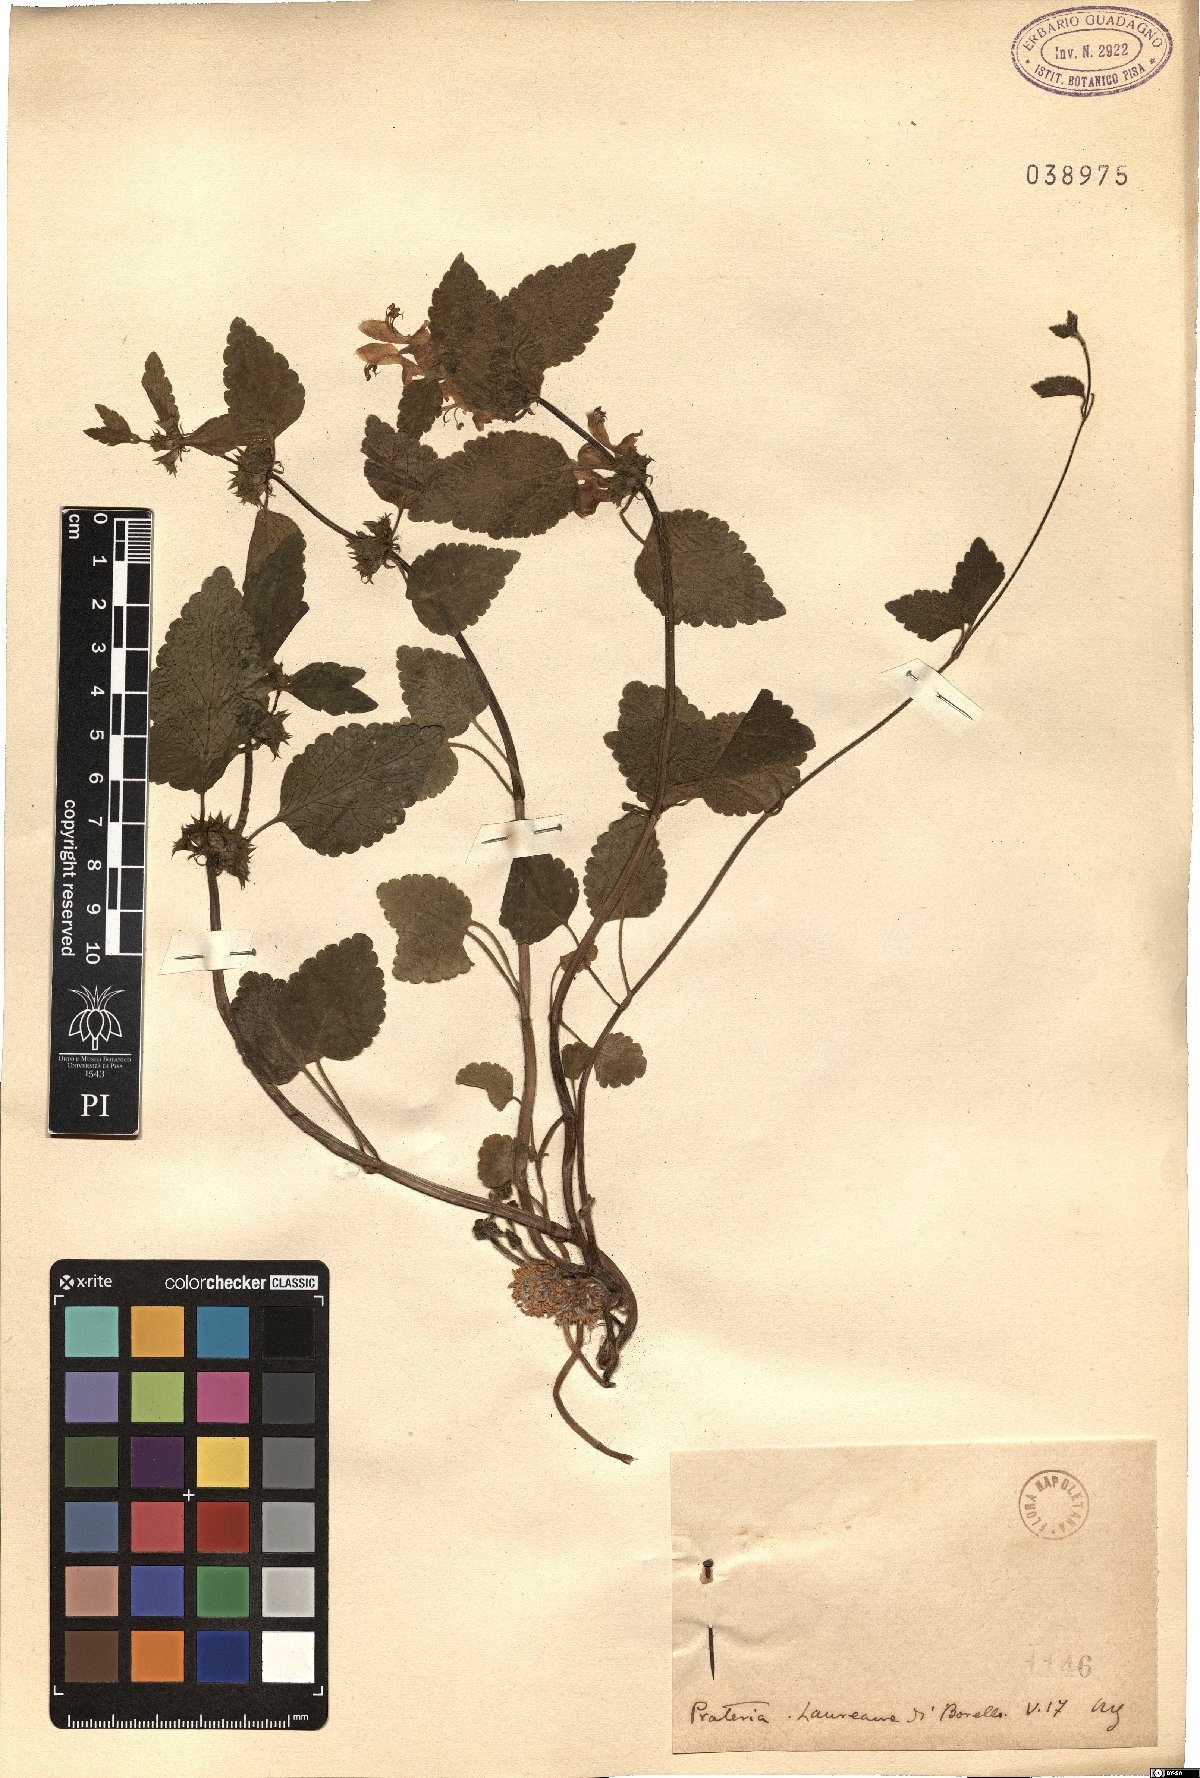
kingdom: Plantae
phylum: Tracheophyta
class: Magnoliopsida
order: Lamiales
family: Lamiaceae
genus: Lamium
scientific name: Lamium
